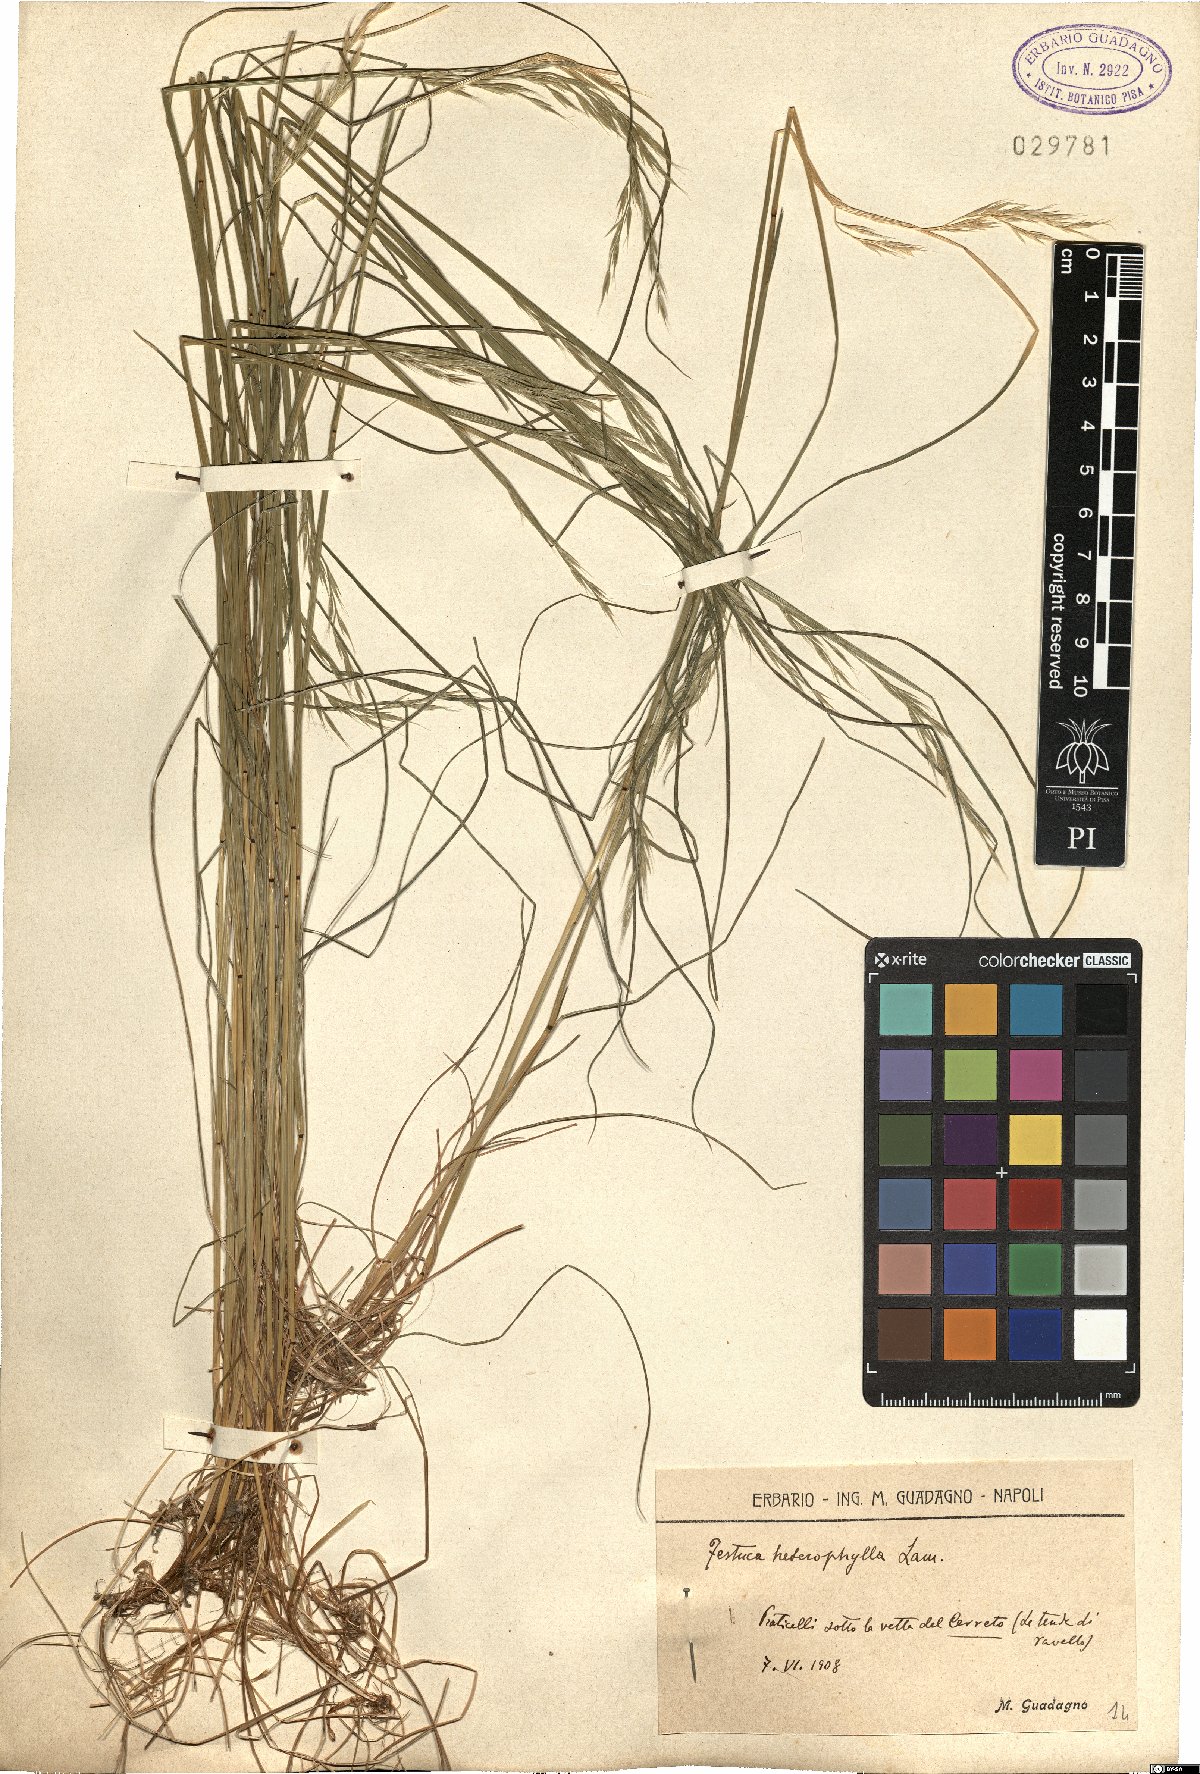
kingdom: Plantae
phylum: Tracheophyta
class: Liliopsida
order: Poales
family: Poaceae
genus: Festuca
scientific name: Festuca heterophylla
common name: Various-leaved fescue
